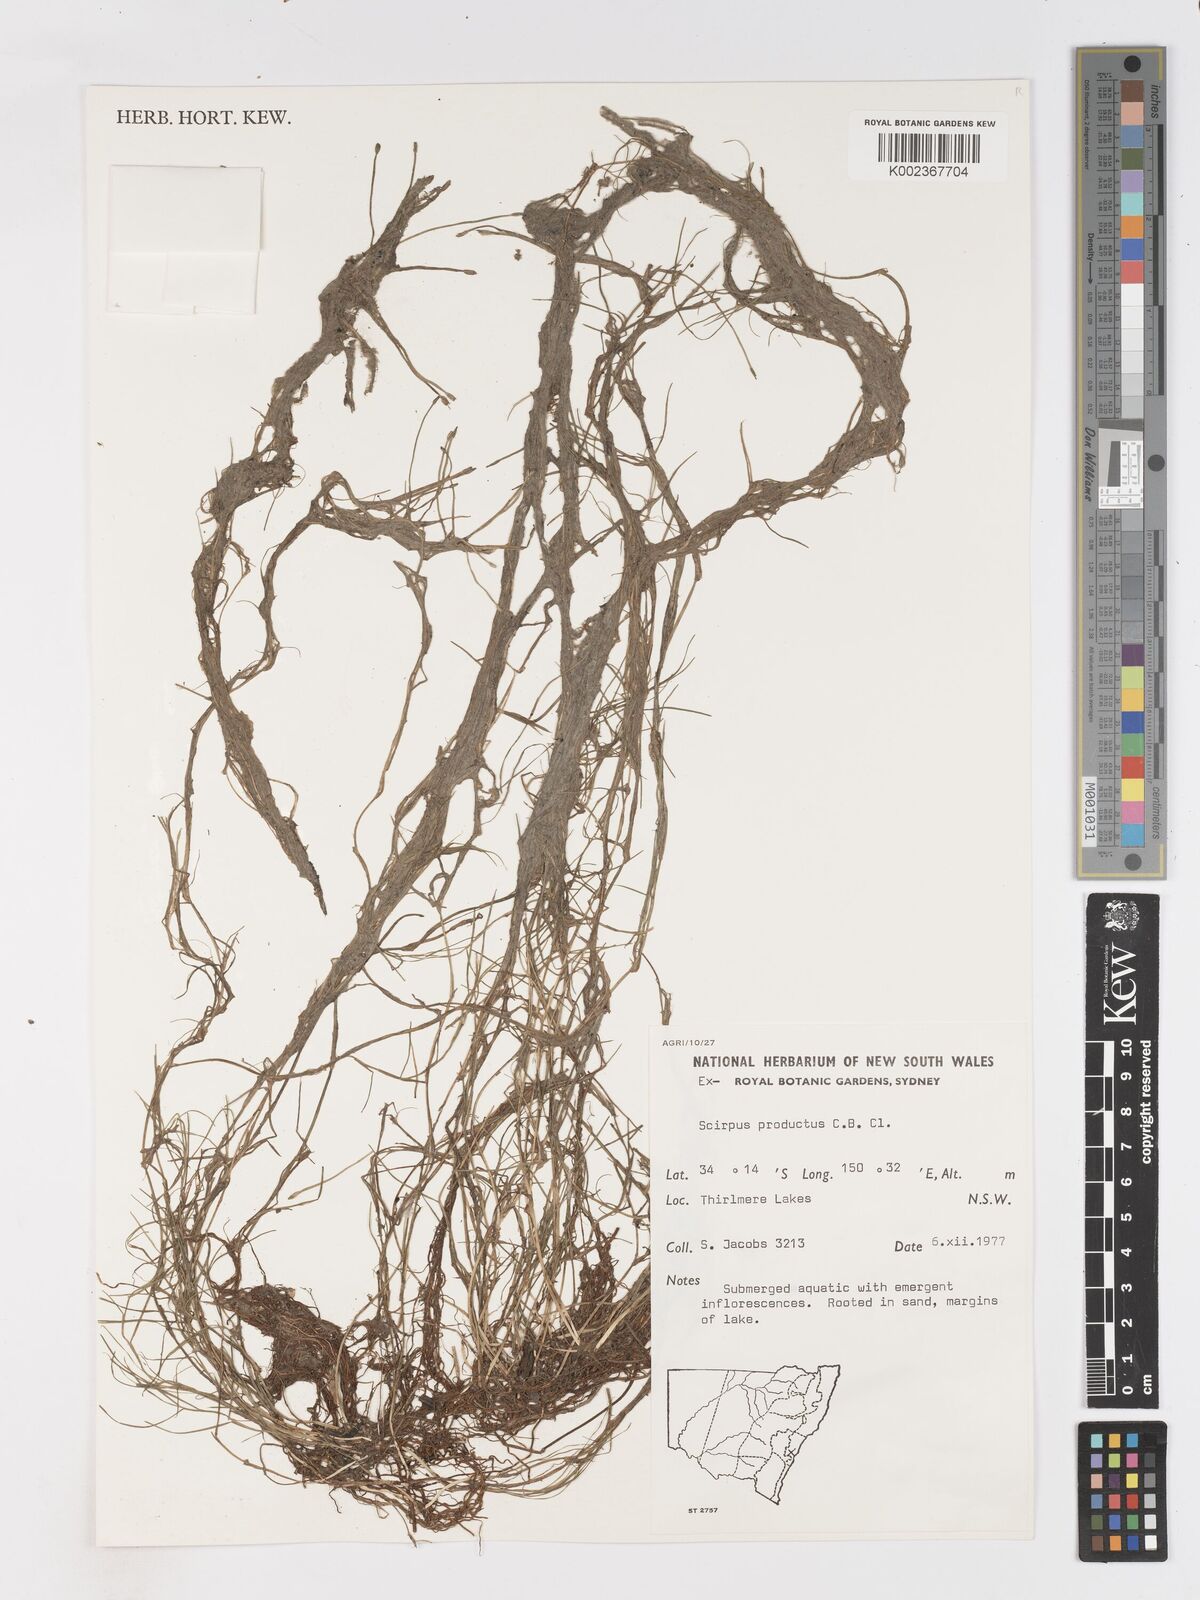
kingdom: Plantae
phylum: Tracheophyta
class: Liliopsida
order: Poales
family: Cyperaceae
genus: Isolepis
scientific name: Isolepis producta
